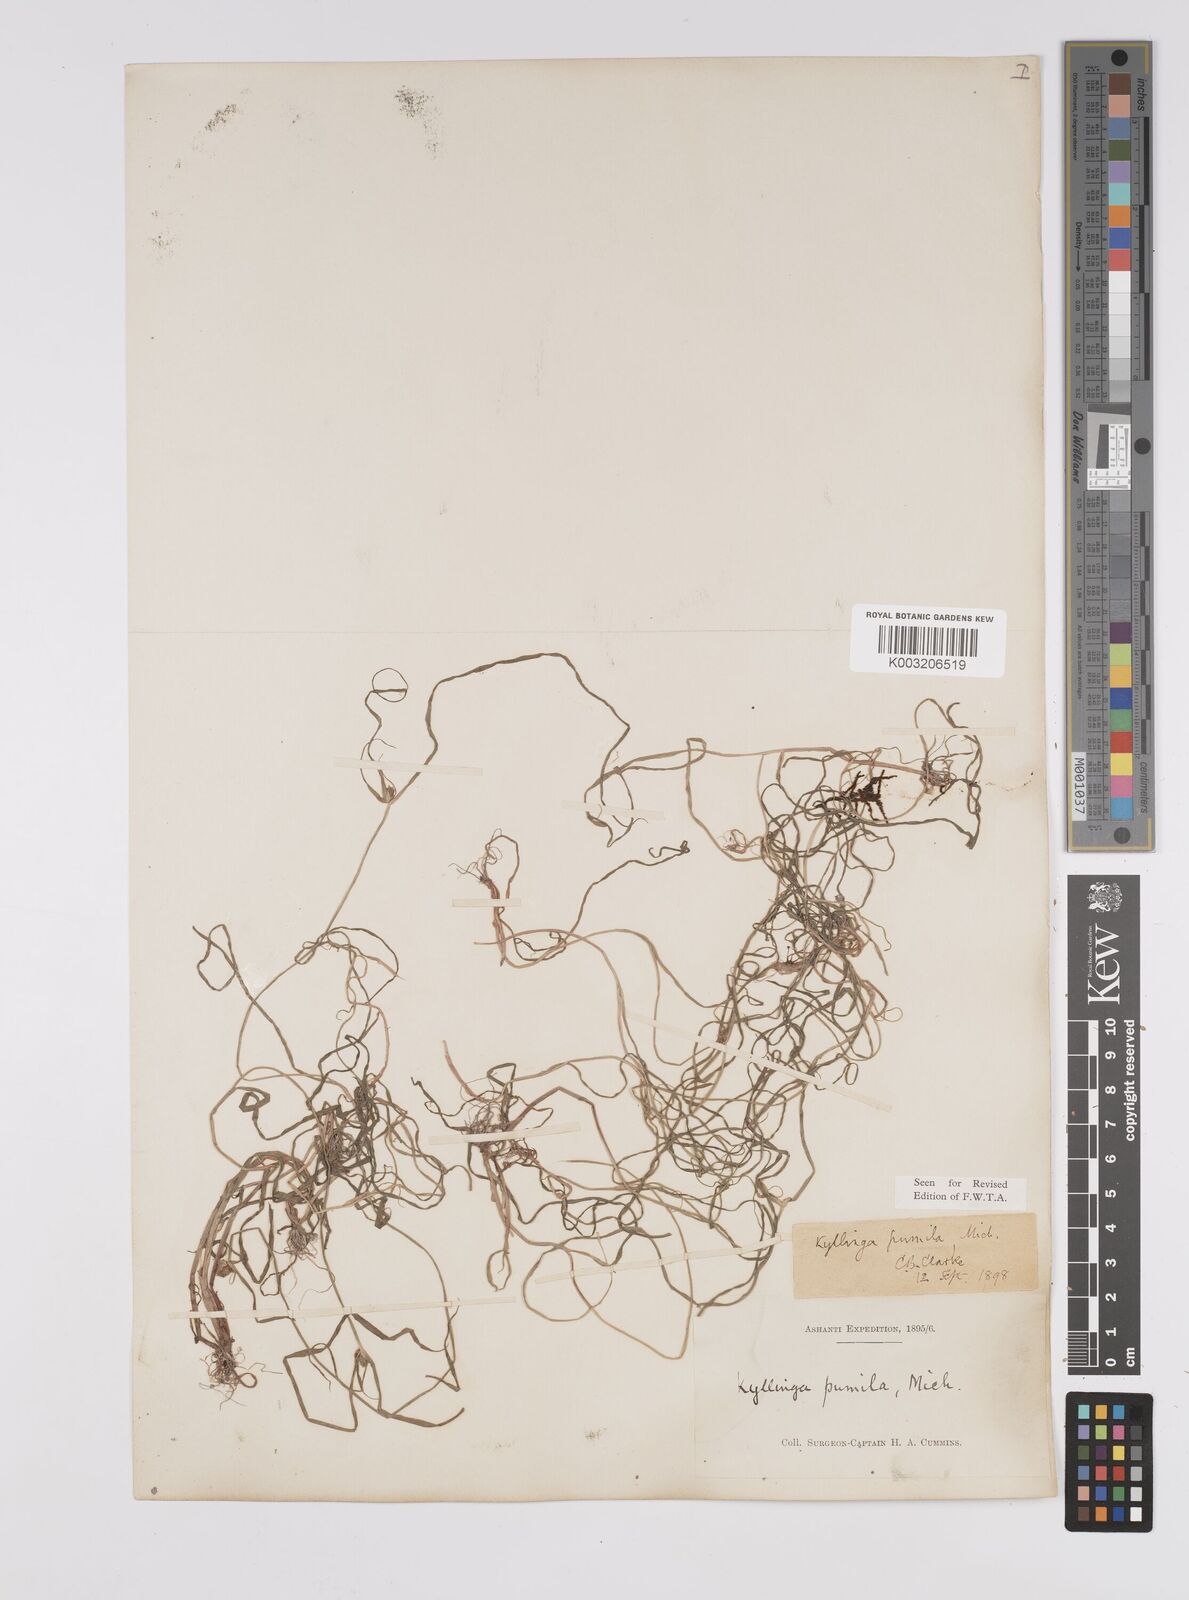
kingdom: Plantae
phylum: Tracheophyta
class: Liliopsida
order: Poales
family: Cyperaceae
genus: Cyperus
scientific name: Cyperus
